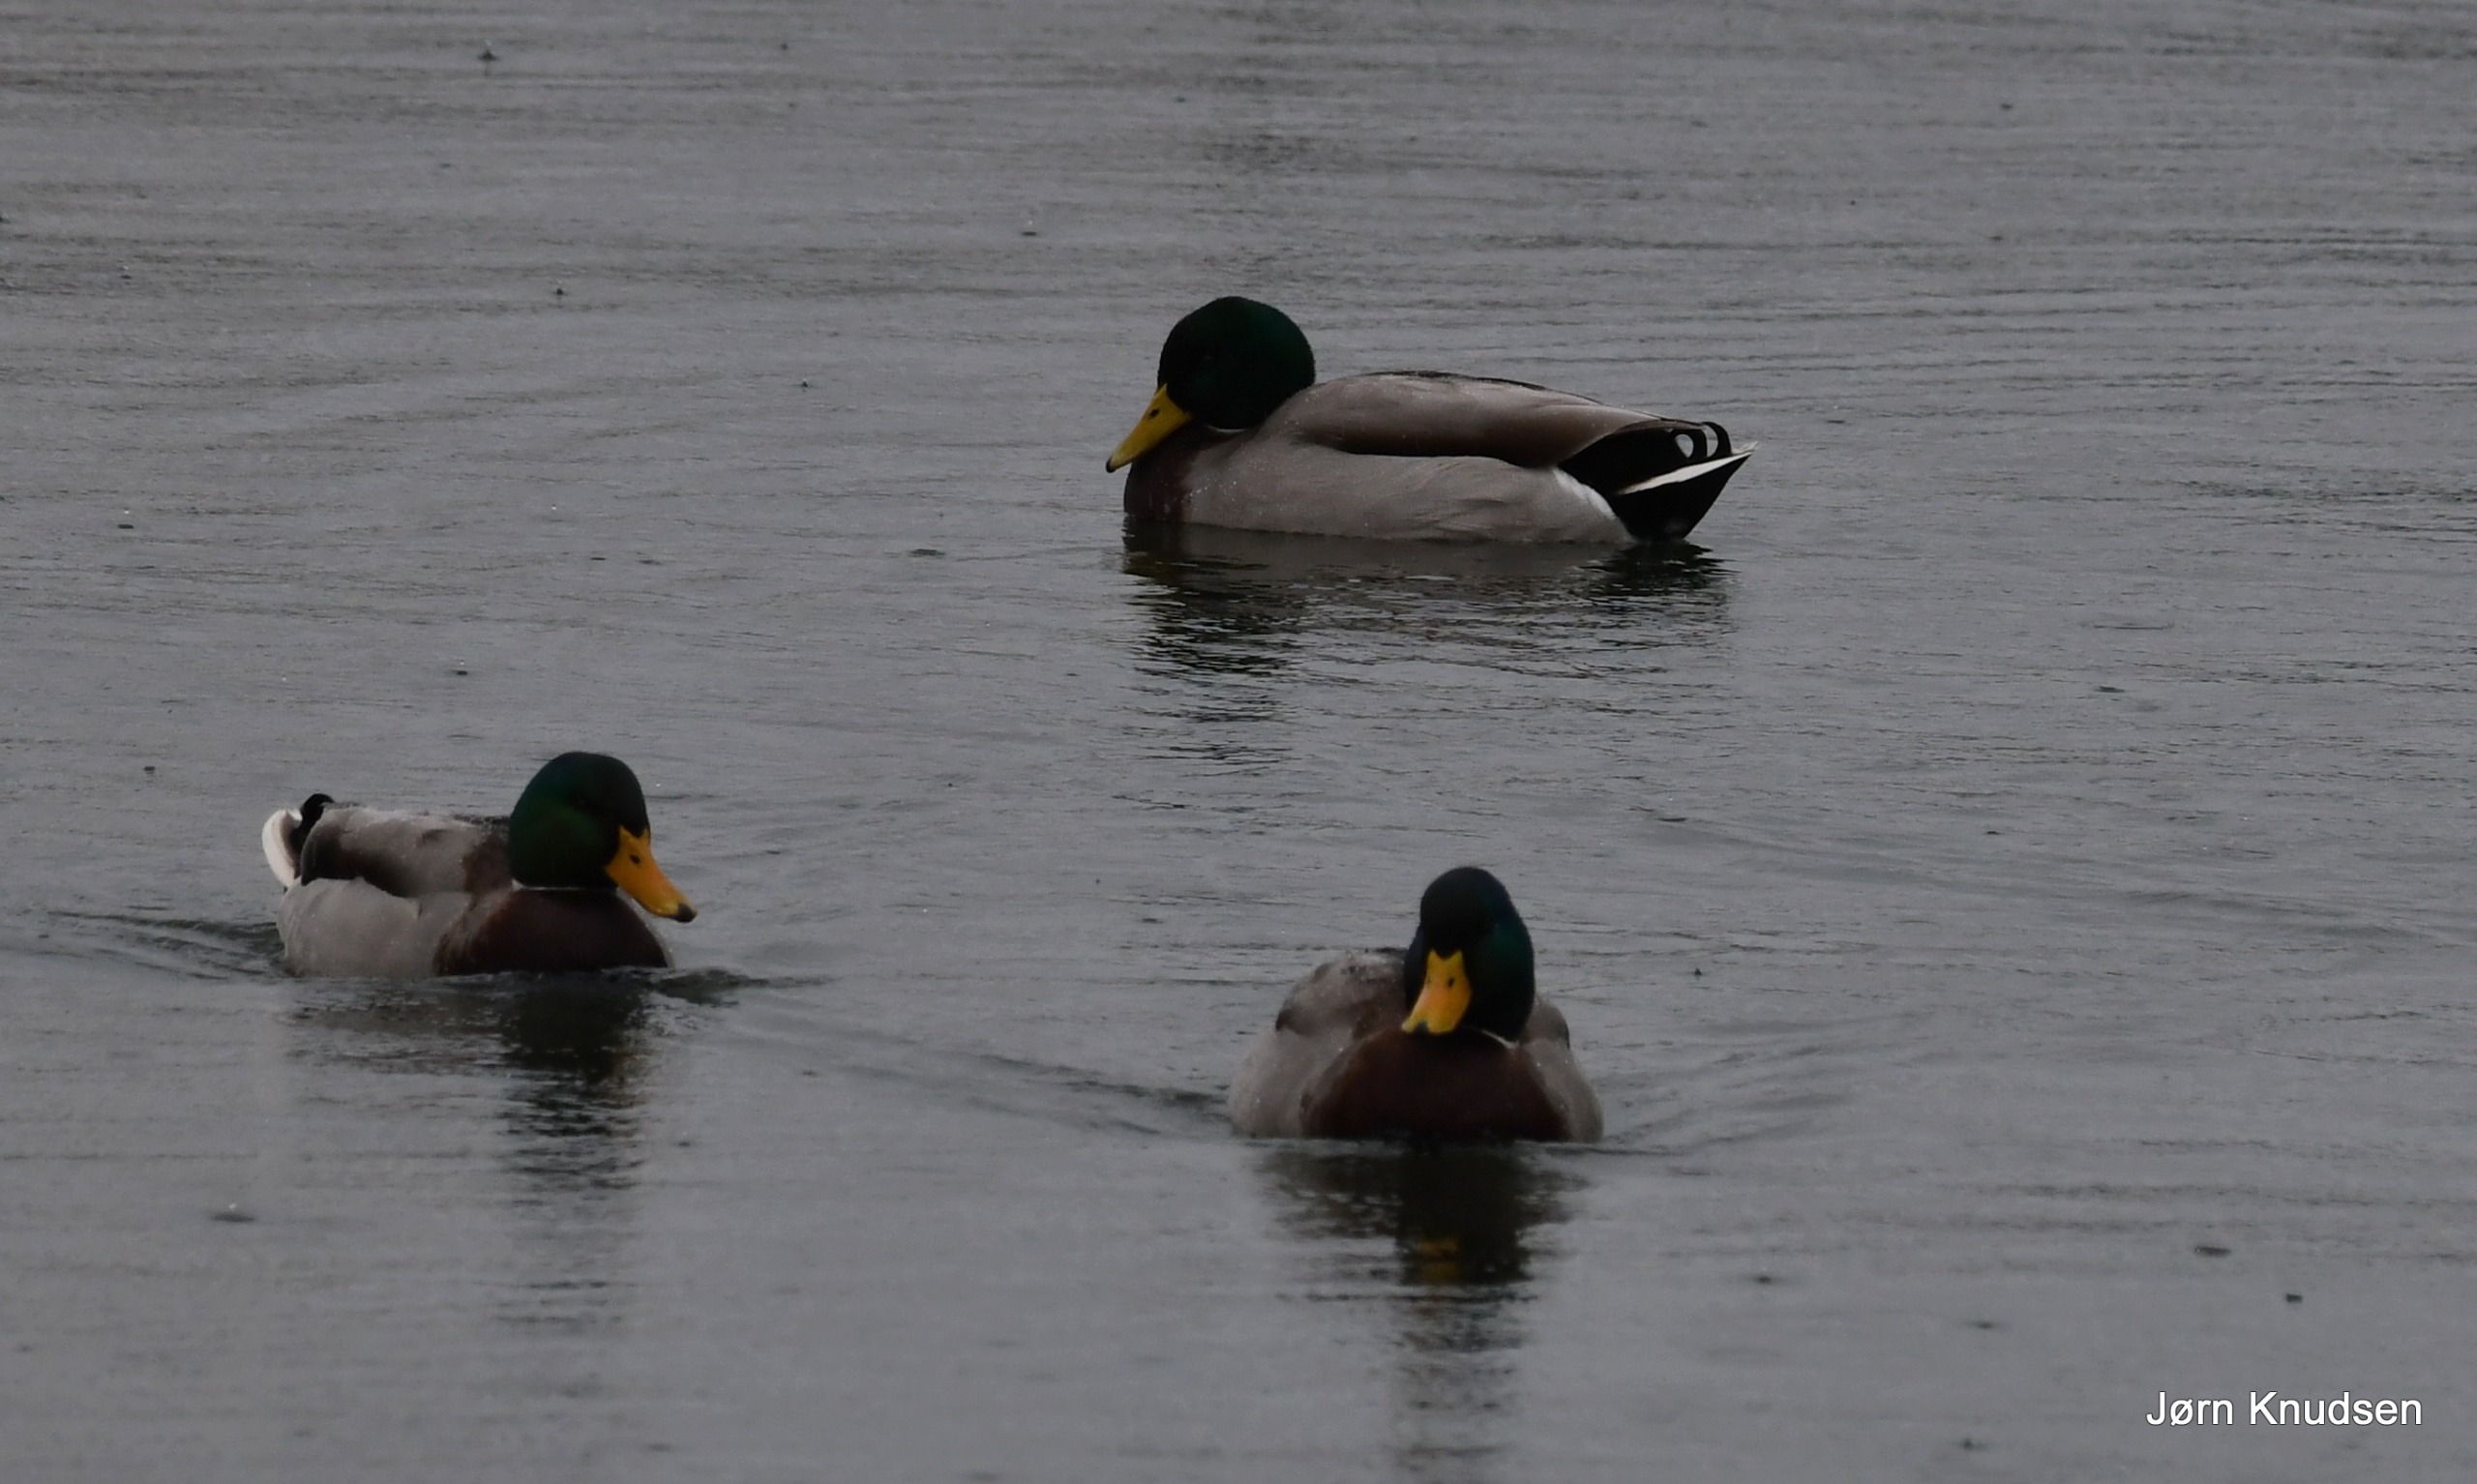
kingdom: Animalia
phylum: Chordata
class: Aves
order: Anseriformes
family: Anatidae
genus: Anas
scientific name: Anas platyrhynchos
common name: Gråand
